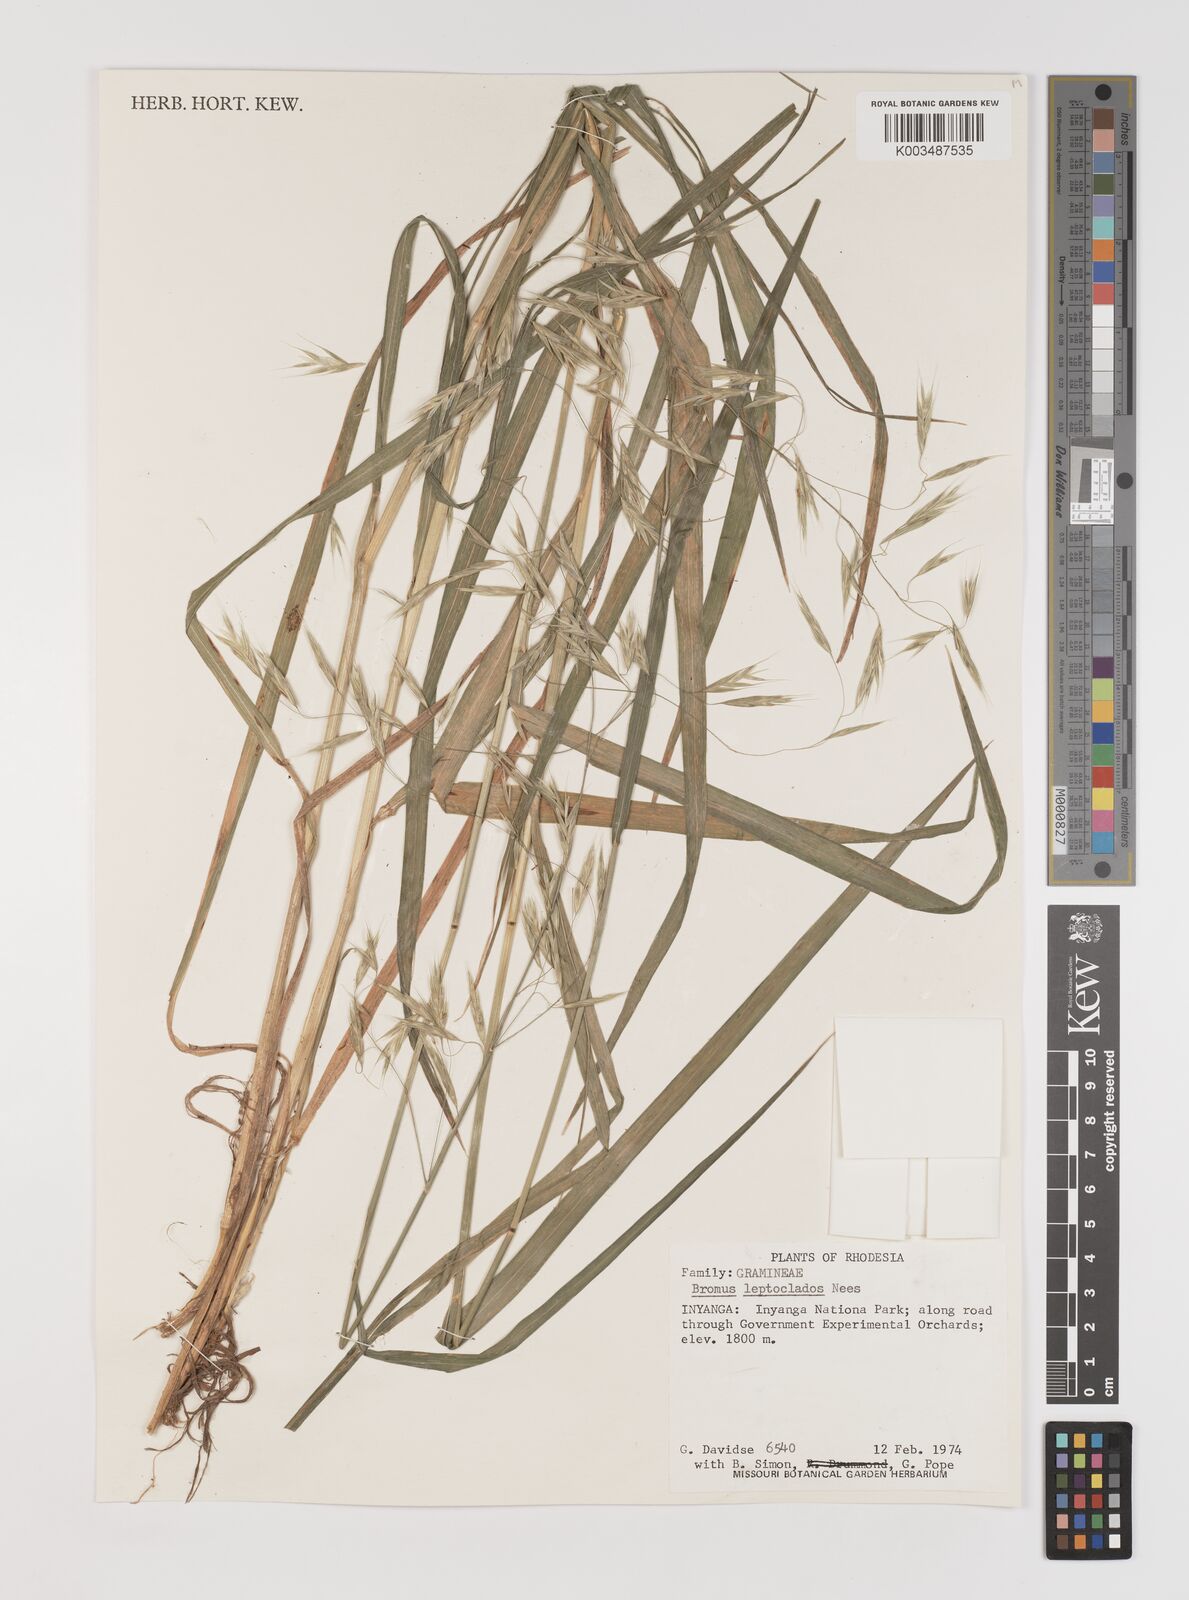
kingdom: Plantae
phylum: Tracheophyta
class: Liliopsida
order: Poales
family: Poaceae
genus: Bromus
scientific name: Bromus leptoclados
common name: Mountain bromegrass
